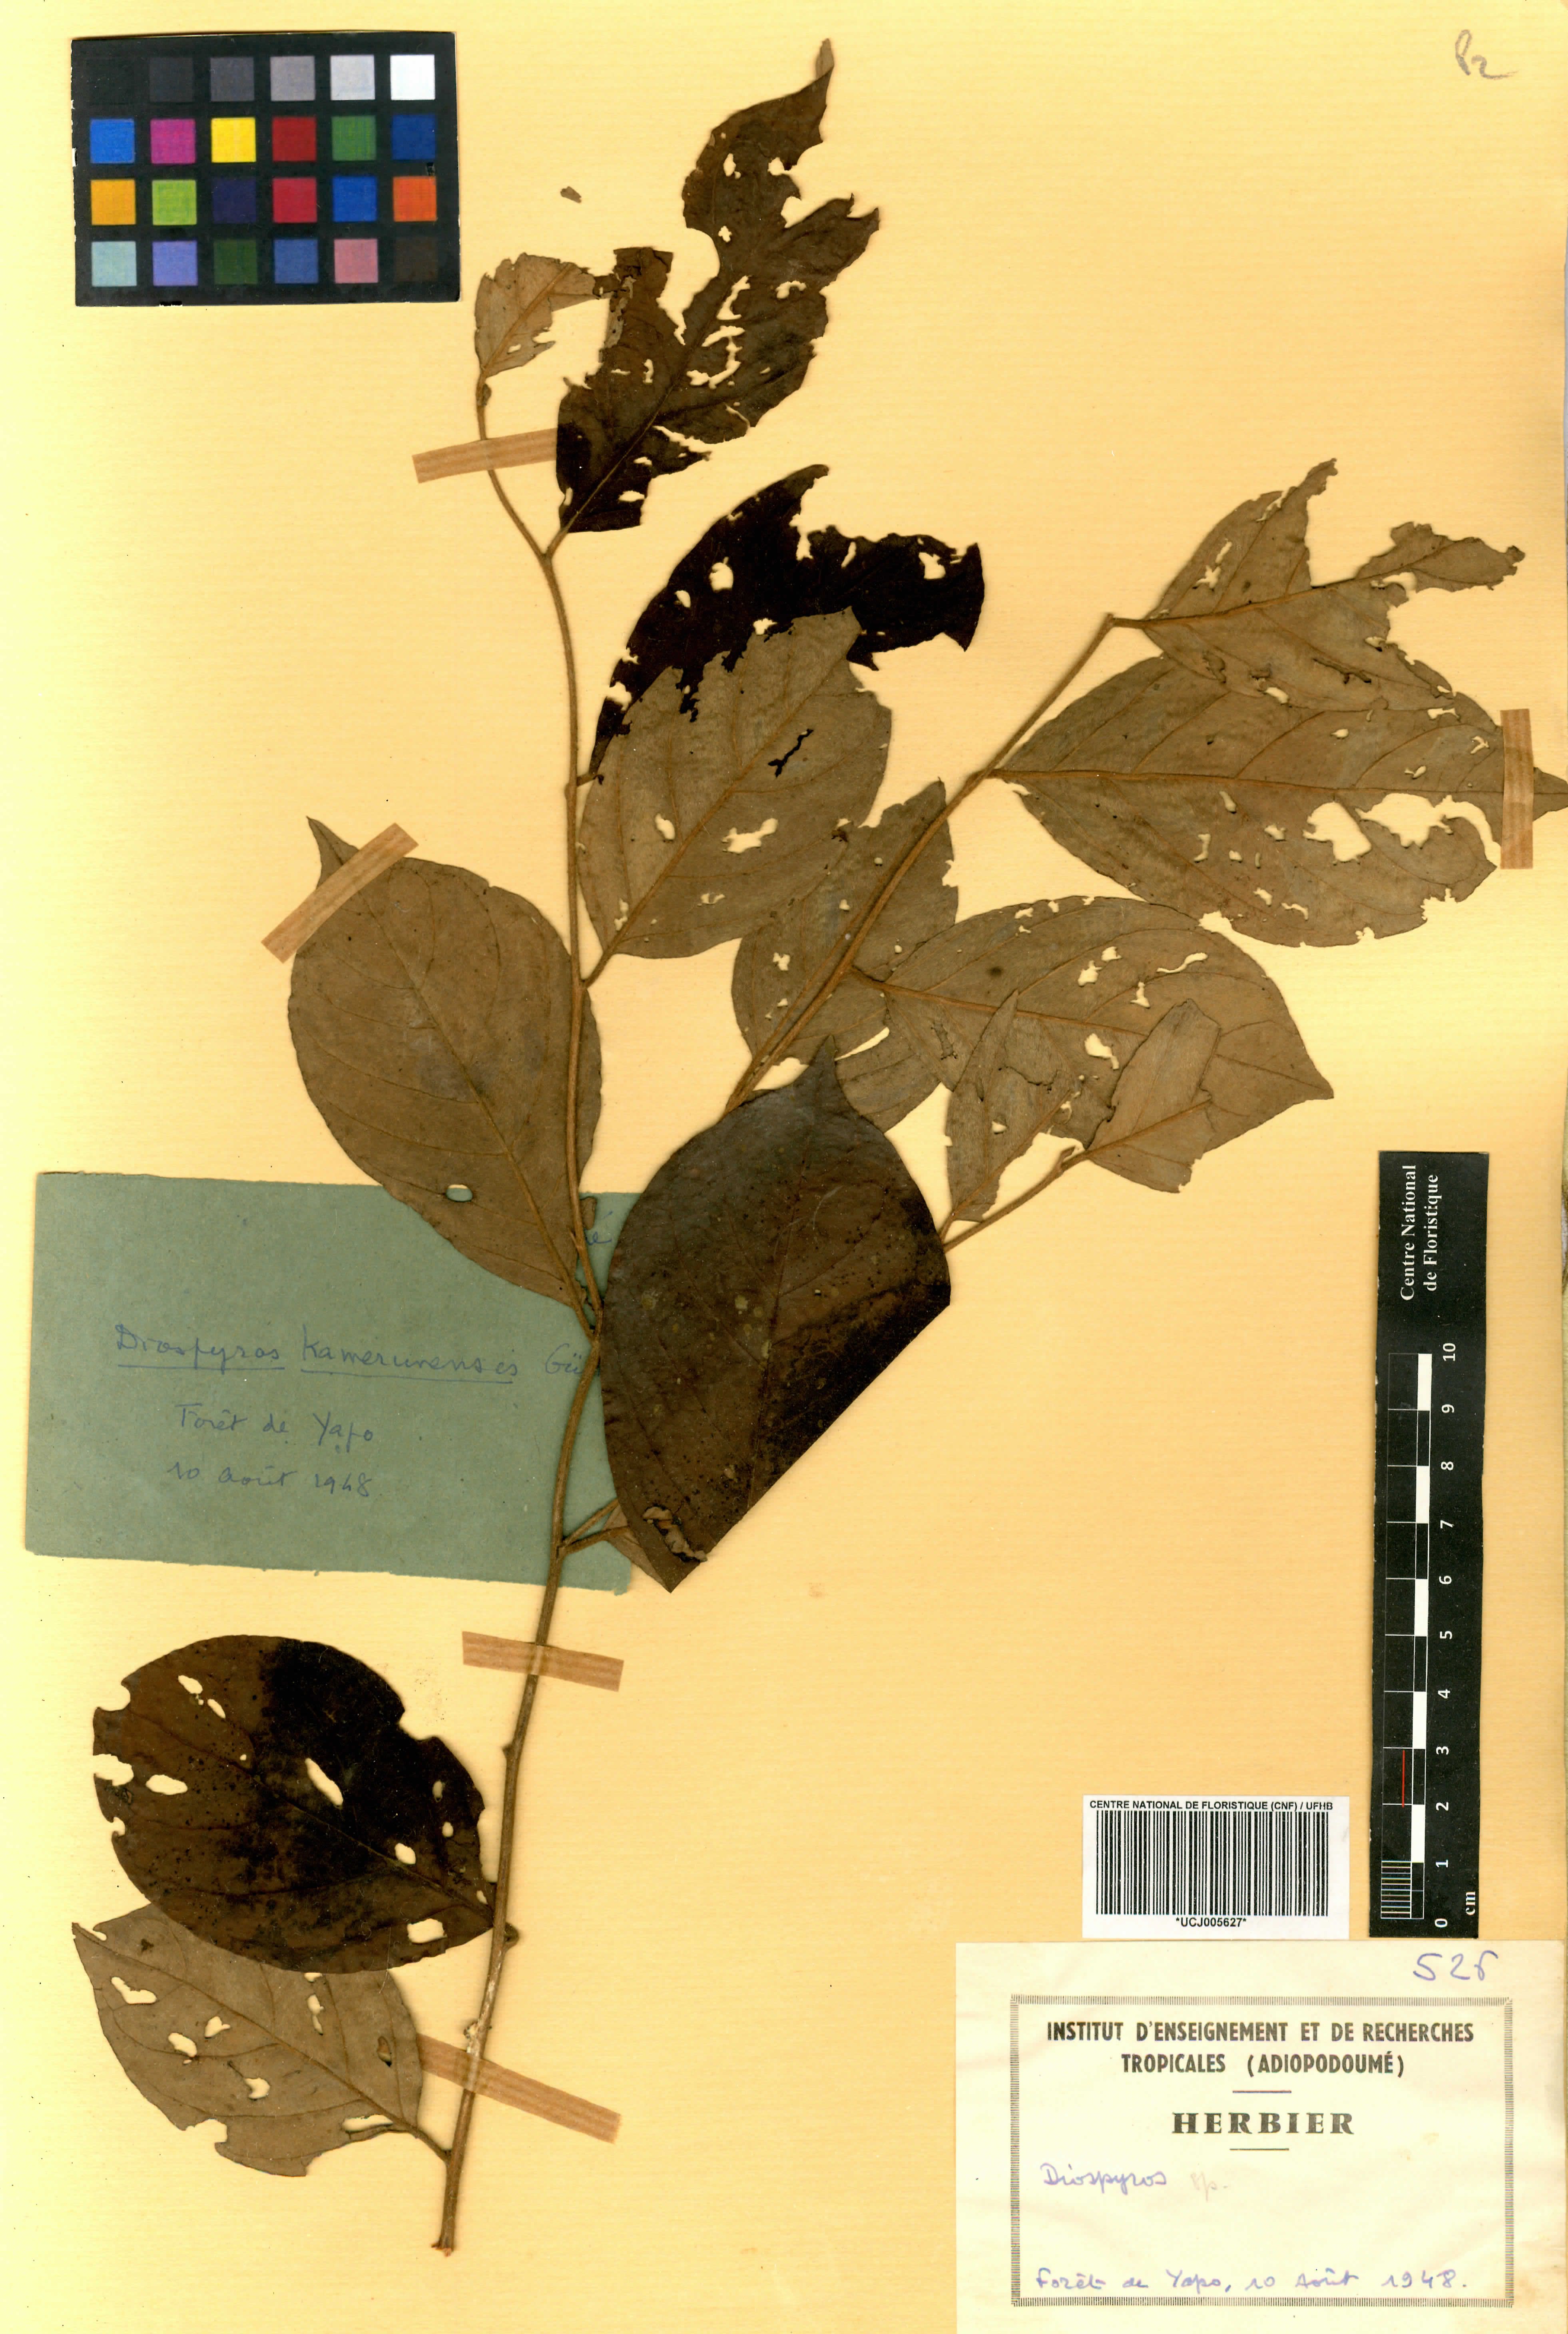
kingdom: Plantae
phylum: Tracheophyta
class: Magnoliopsida
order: Ericales
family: Ebenaceae
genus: Diospyros
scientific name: Diospyros
